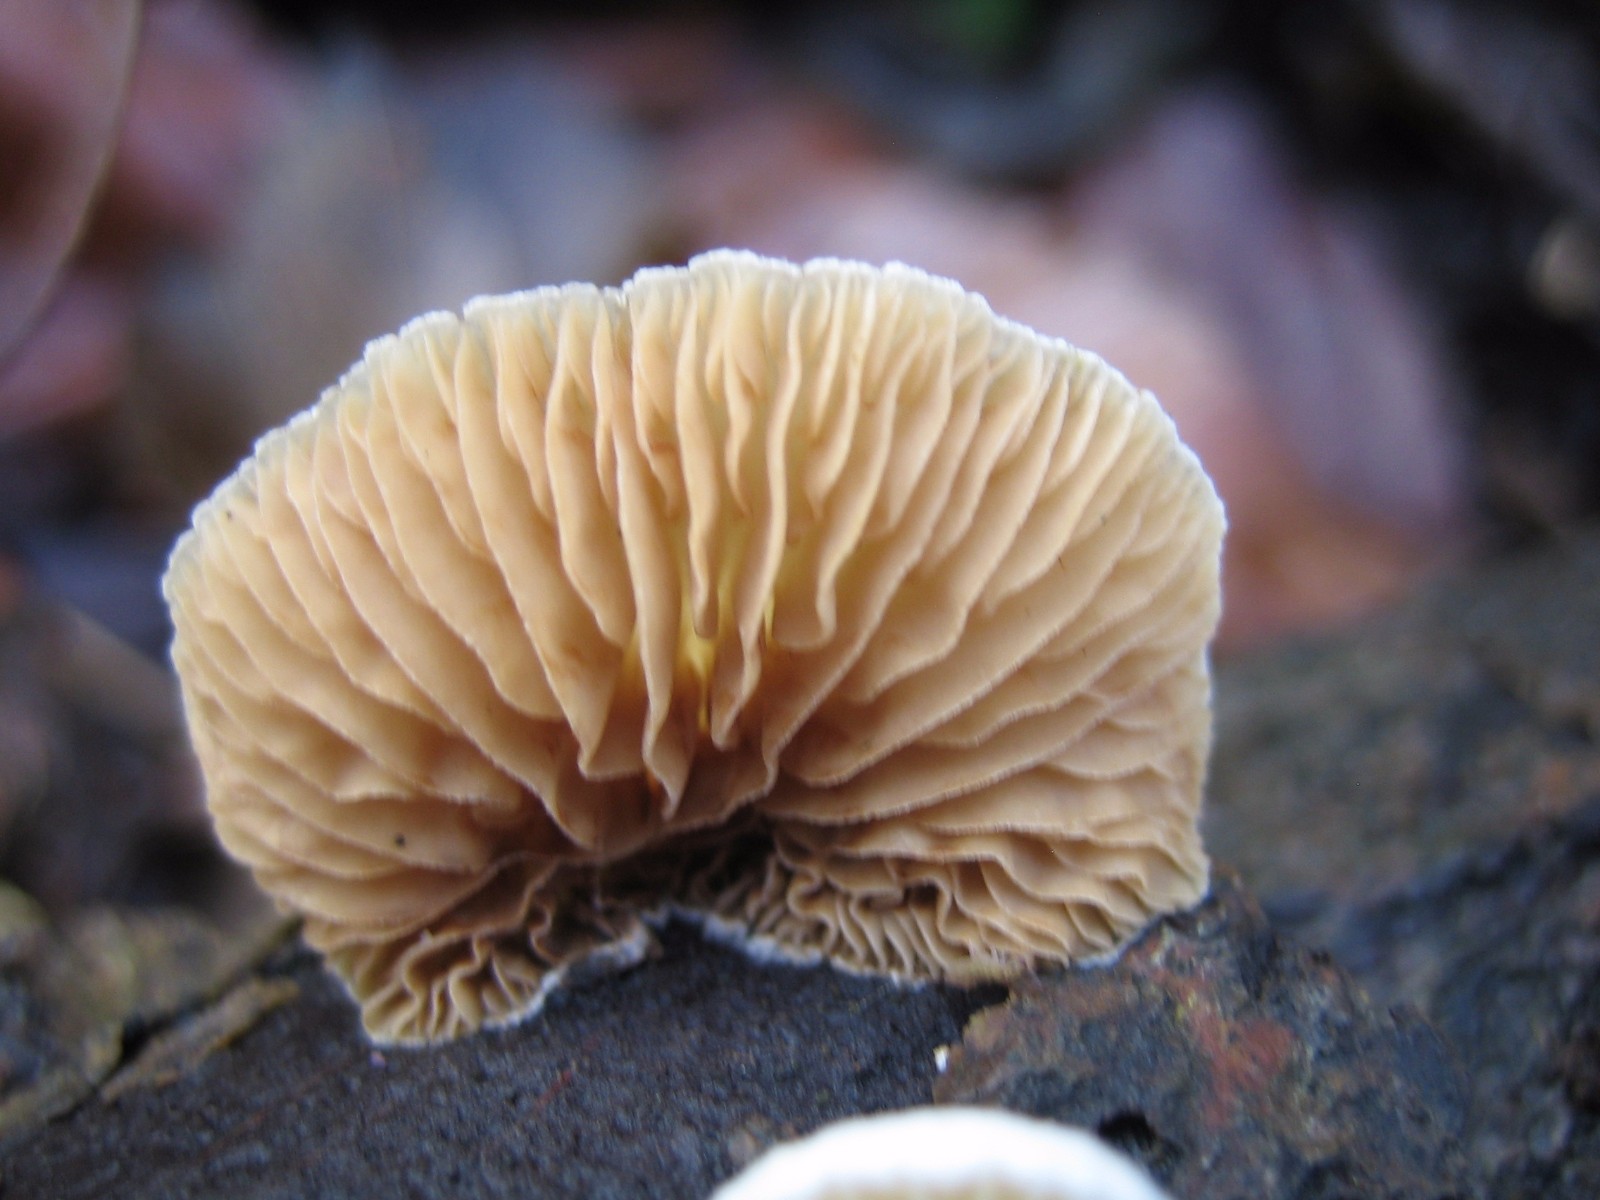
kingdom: Fungi
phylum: Basidiomycota
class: Agaricomycetes
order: Agaricales
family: Crepidotaceae
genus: Crepidotus
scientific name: Crepidotus
